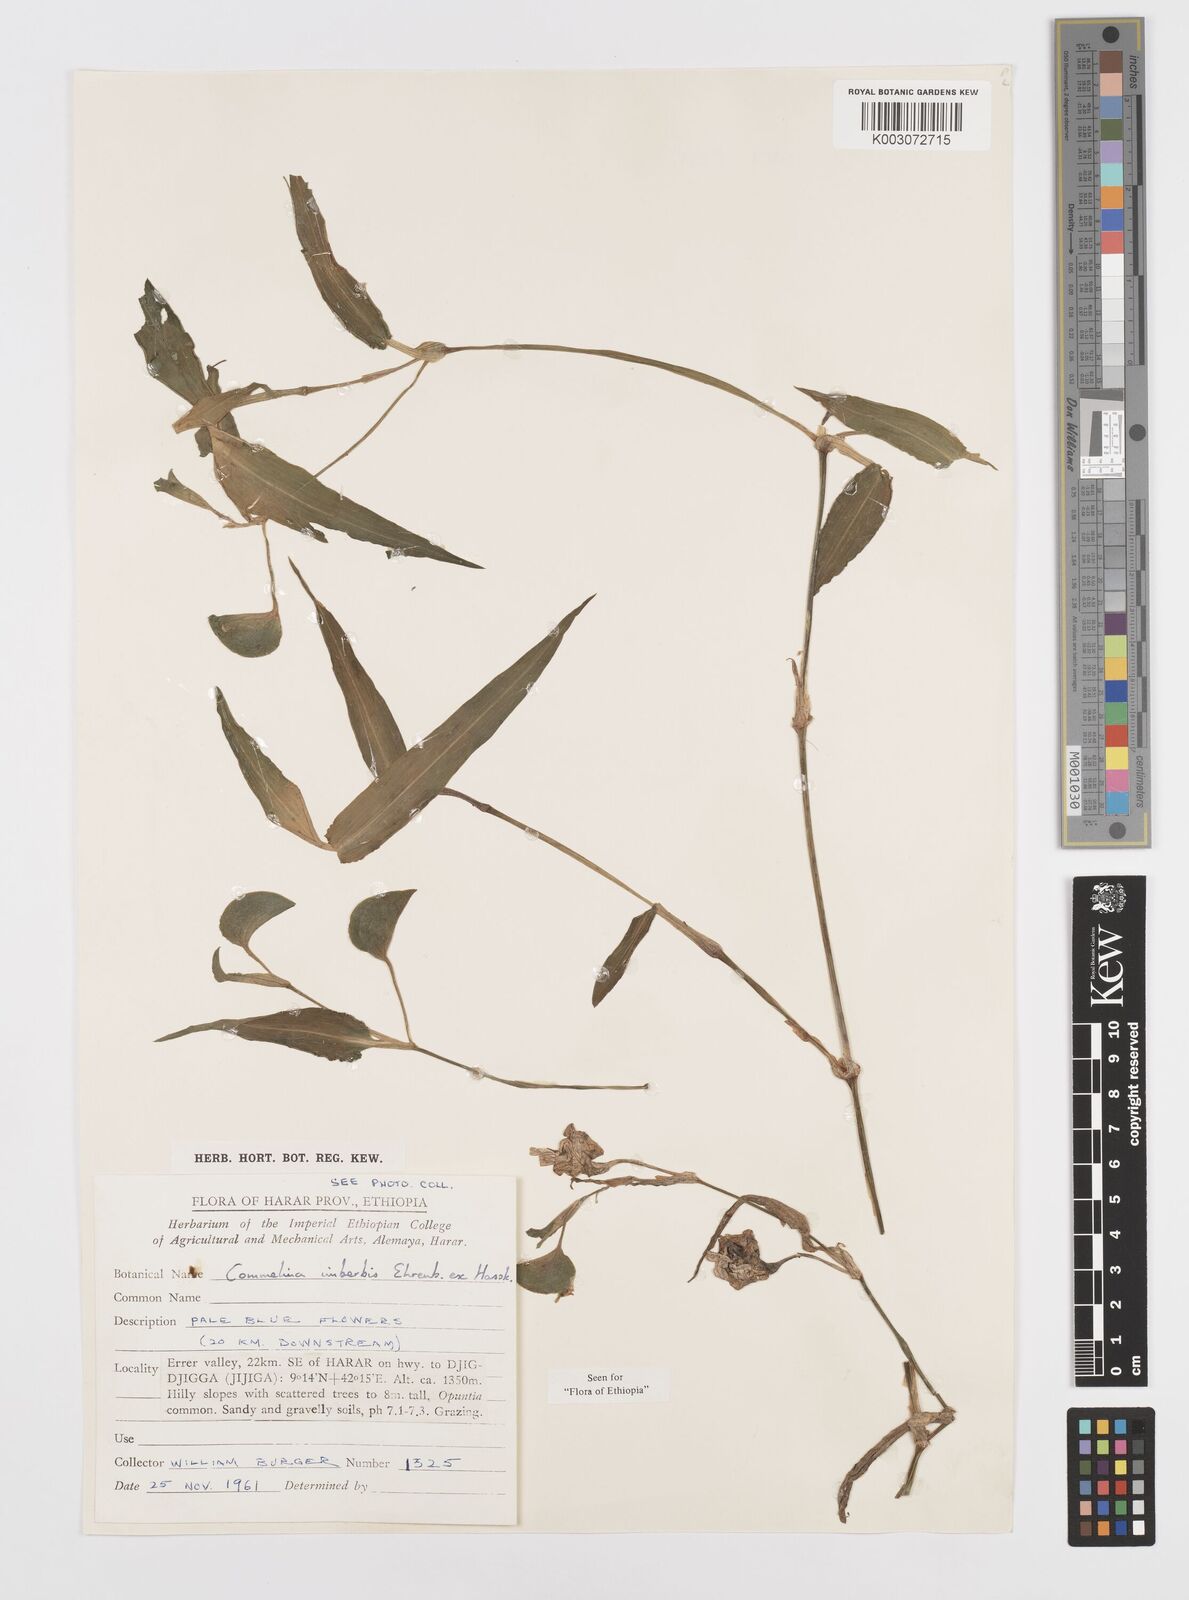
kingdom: Plantae
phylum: Tracheophyta
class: Liliopsida
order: Commelinales
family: Commelinaceae
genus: Commelina
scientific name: Commelina imberbis
